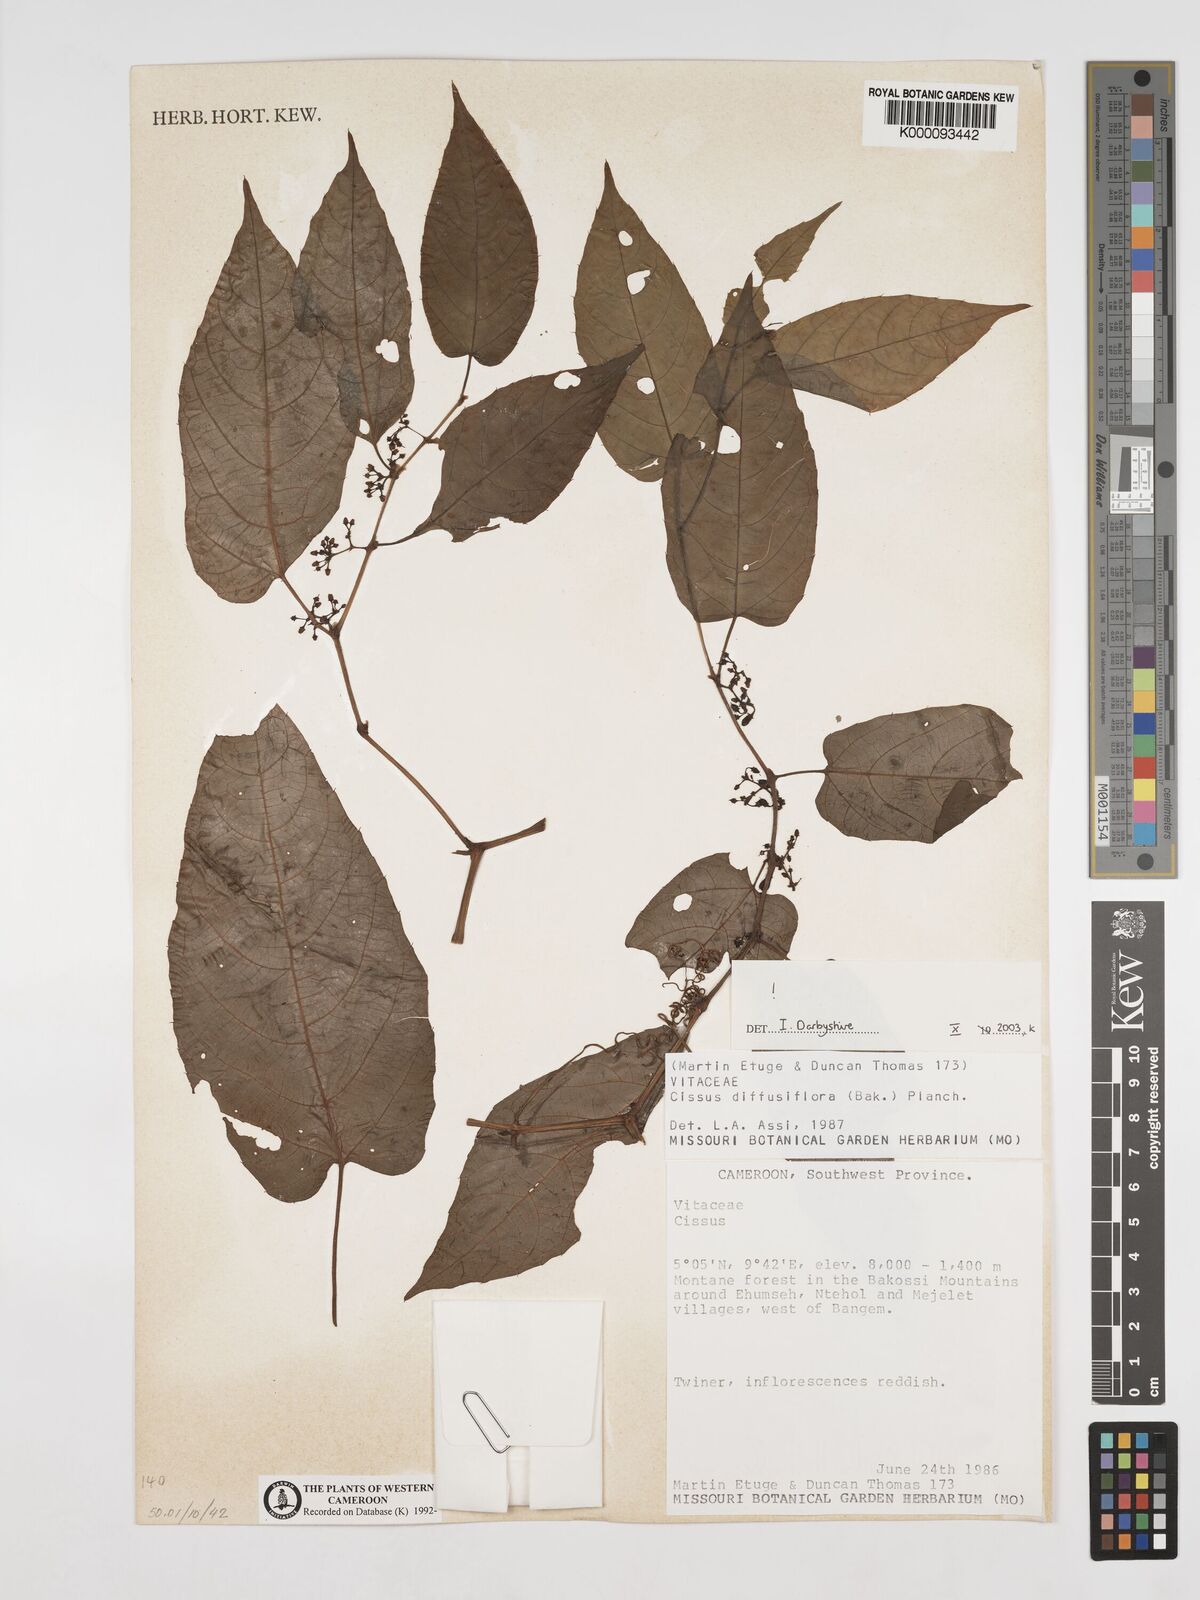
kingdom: Plantae
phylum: Tracheophyta
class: Magnoliopsida
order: Vitales
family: Vitaceae
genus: Cissus
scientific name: Cissus diffusiflora
